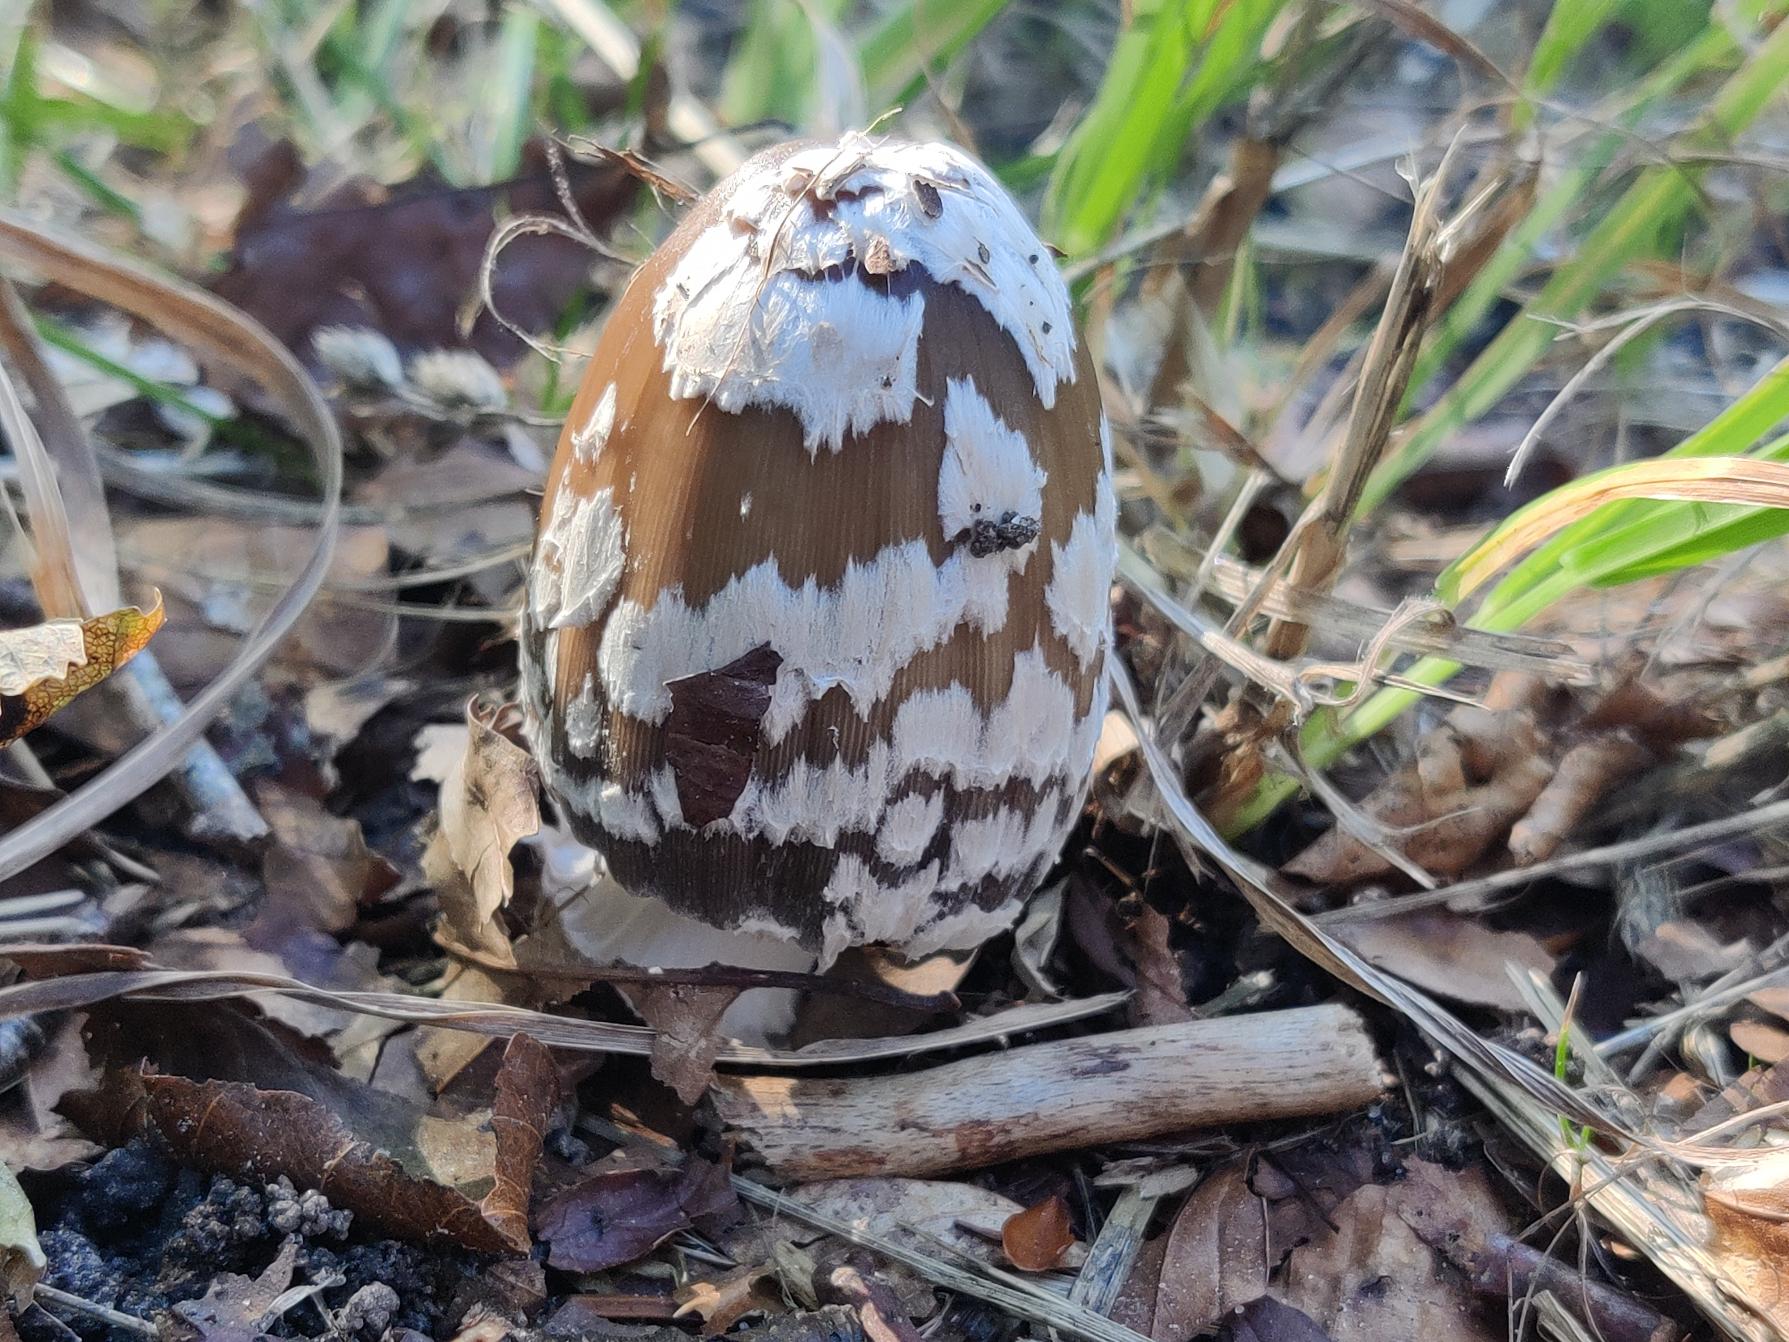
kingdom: Fungi
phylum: Basidiomycota
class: Agaricomycetes
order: Agaricales
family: Psathyrellaceae
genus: Coprinopsis
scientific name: Coprinopsis picacea
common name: Skade-blækhat
